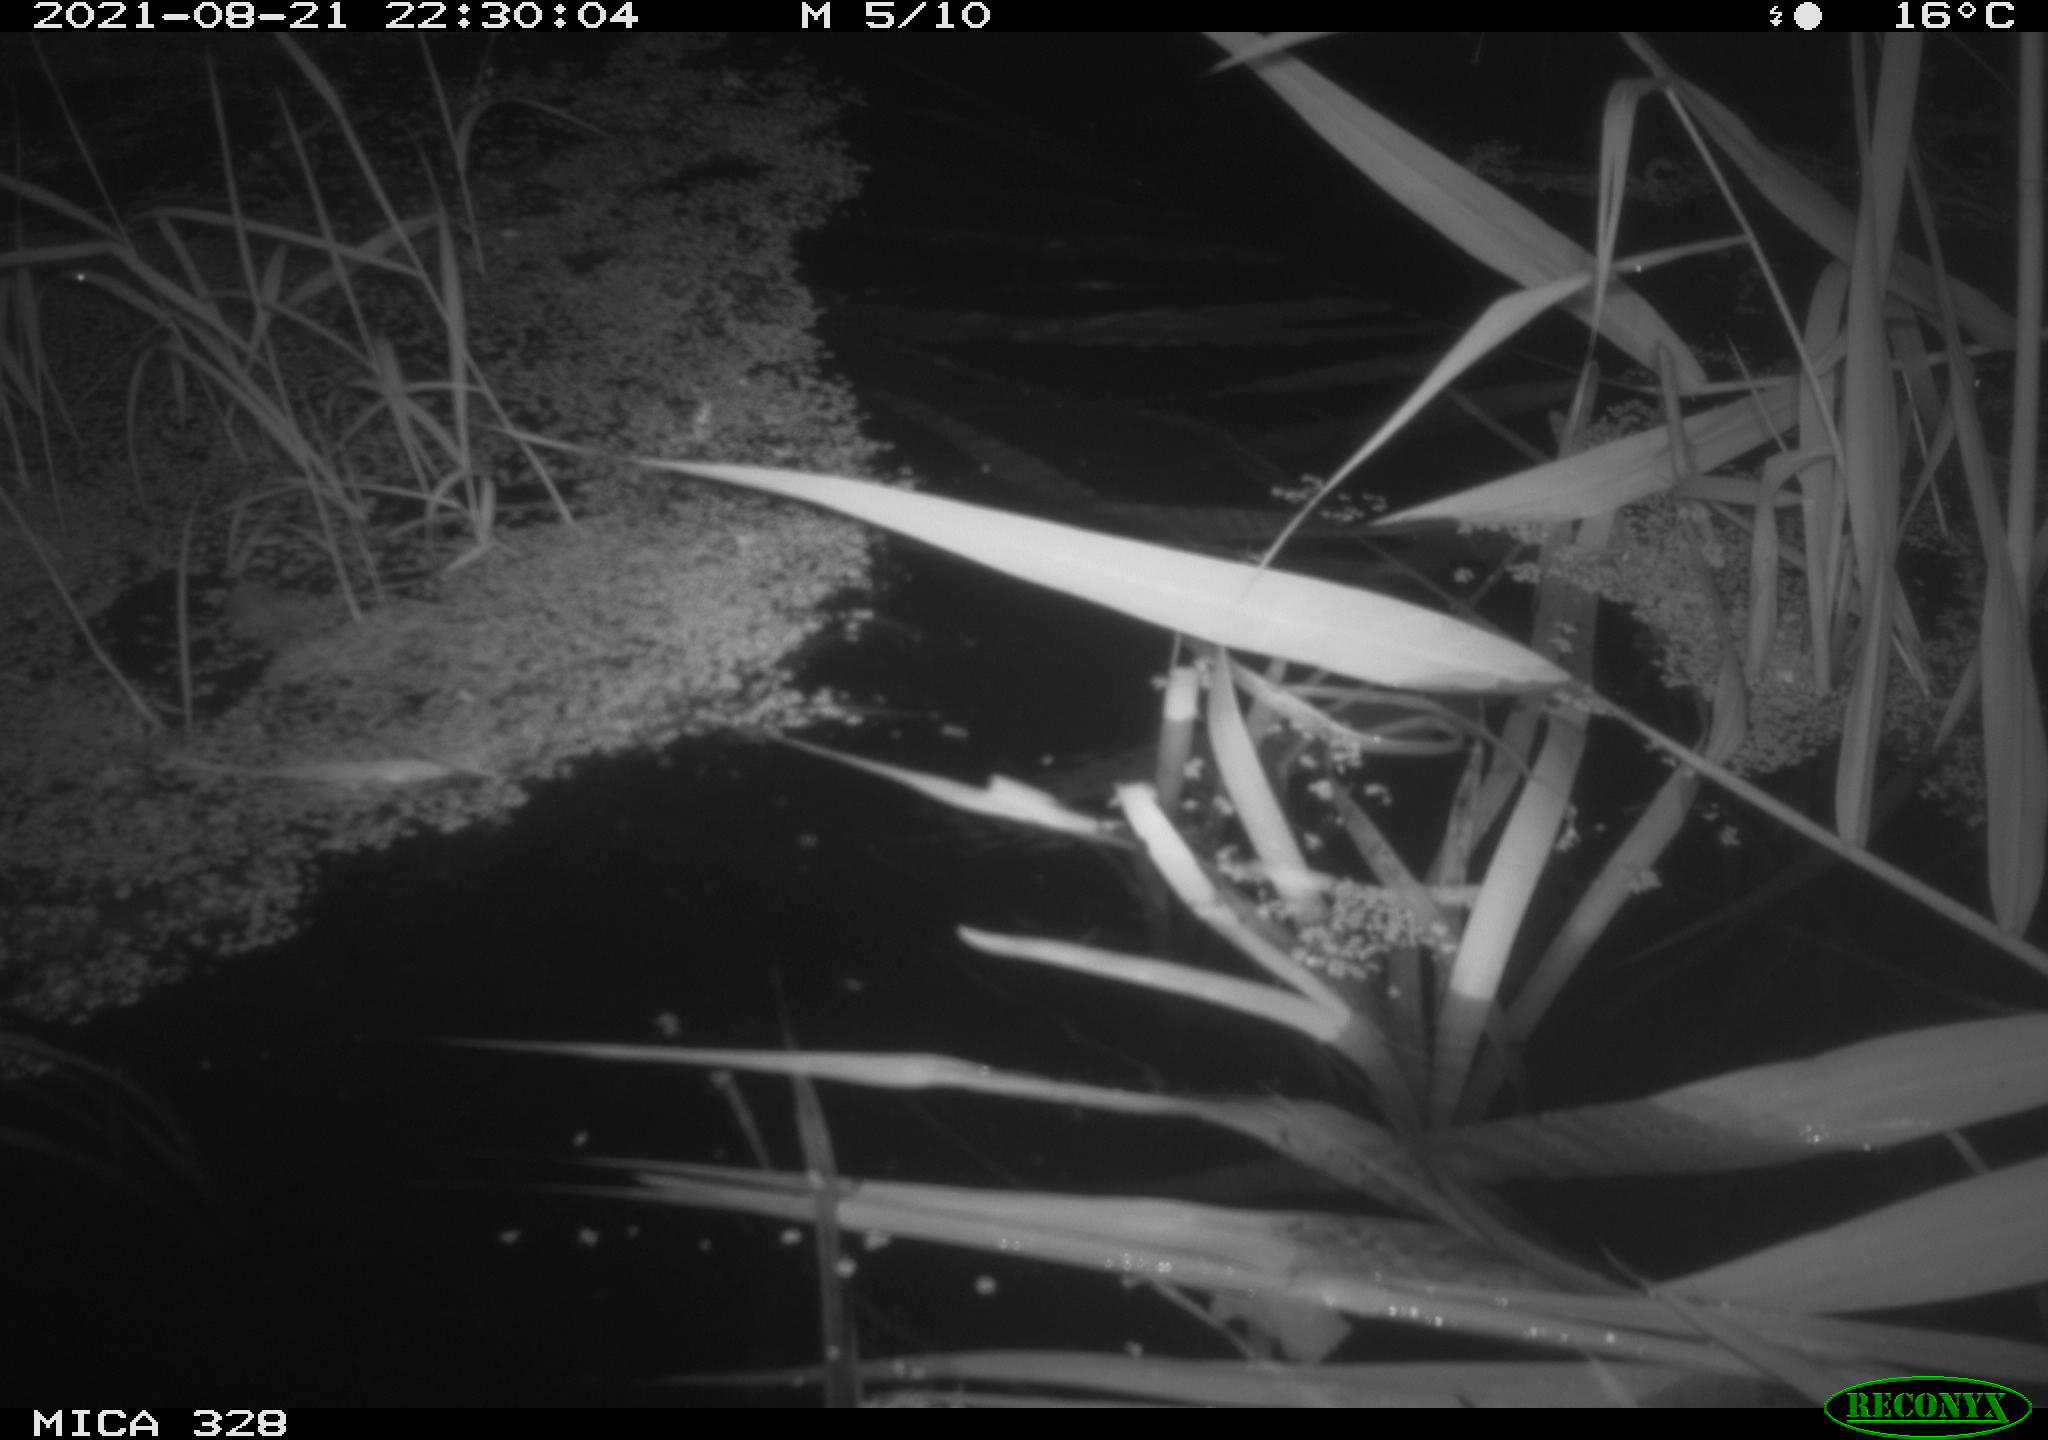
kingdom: Animalia
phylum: Chordata
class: Mammalia
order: Rodentia
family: Cricetidae
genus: Ondatra
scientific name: Ondatra zibethicus
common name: Muskrat
